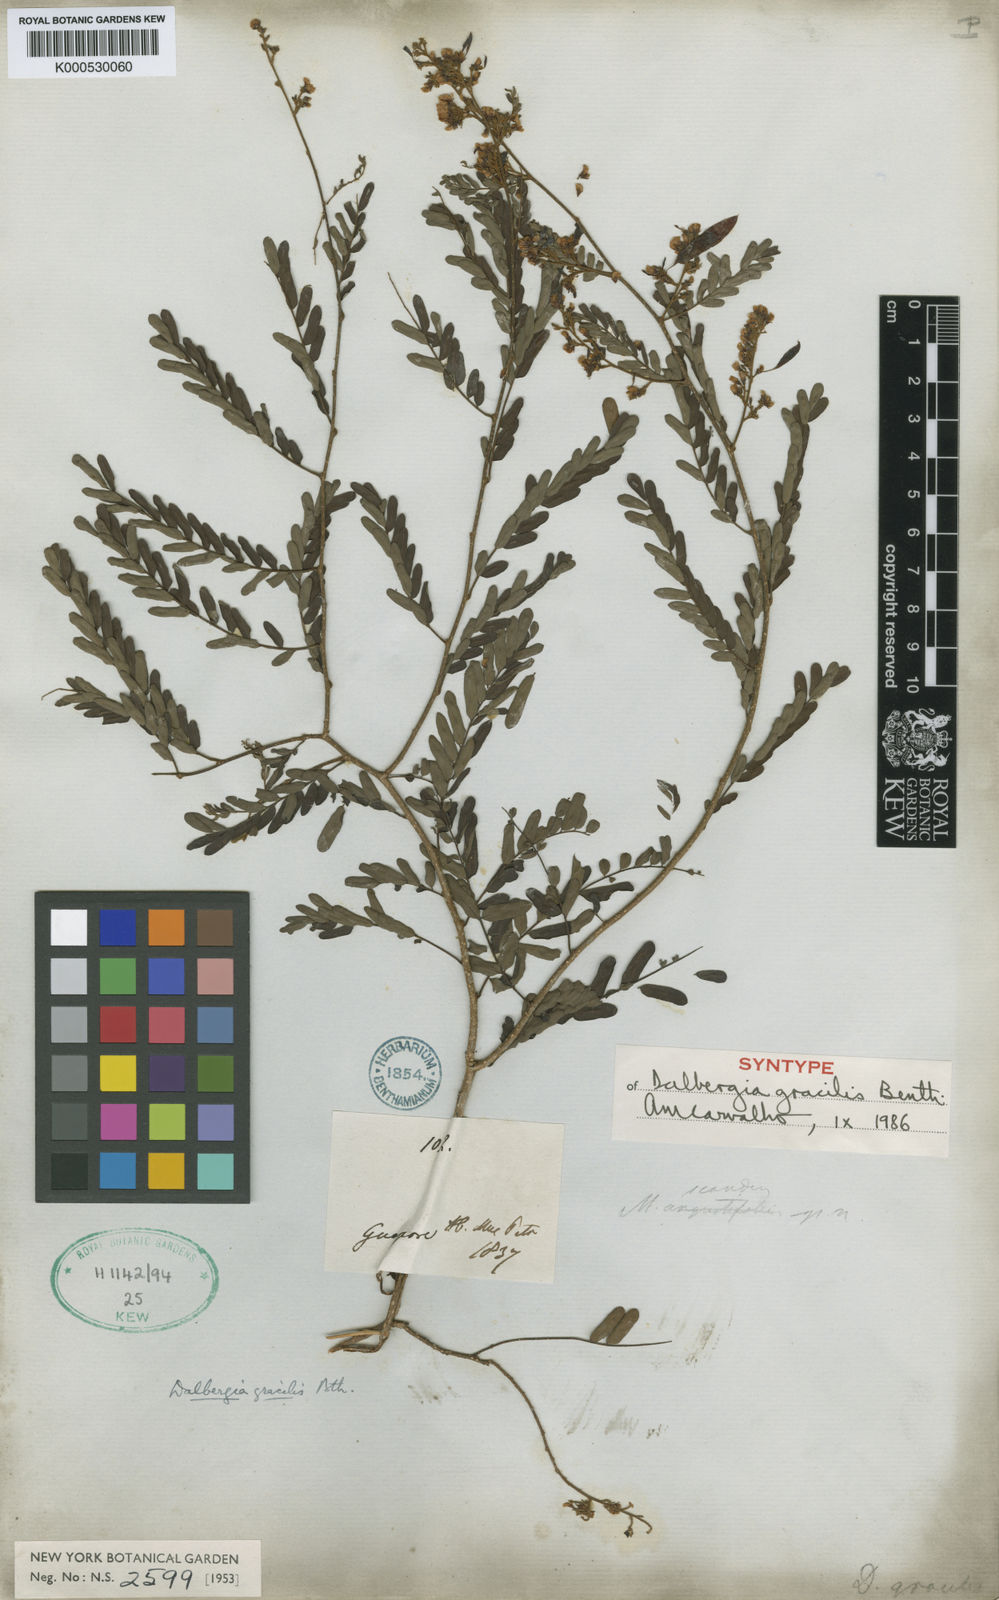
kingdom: Plantae
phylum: Tracheophyta
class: Magnoliopsida
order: Fabales
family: Fabaceae
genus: Dalbergia
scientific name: Dalbergia gracilis
